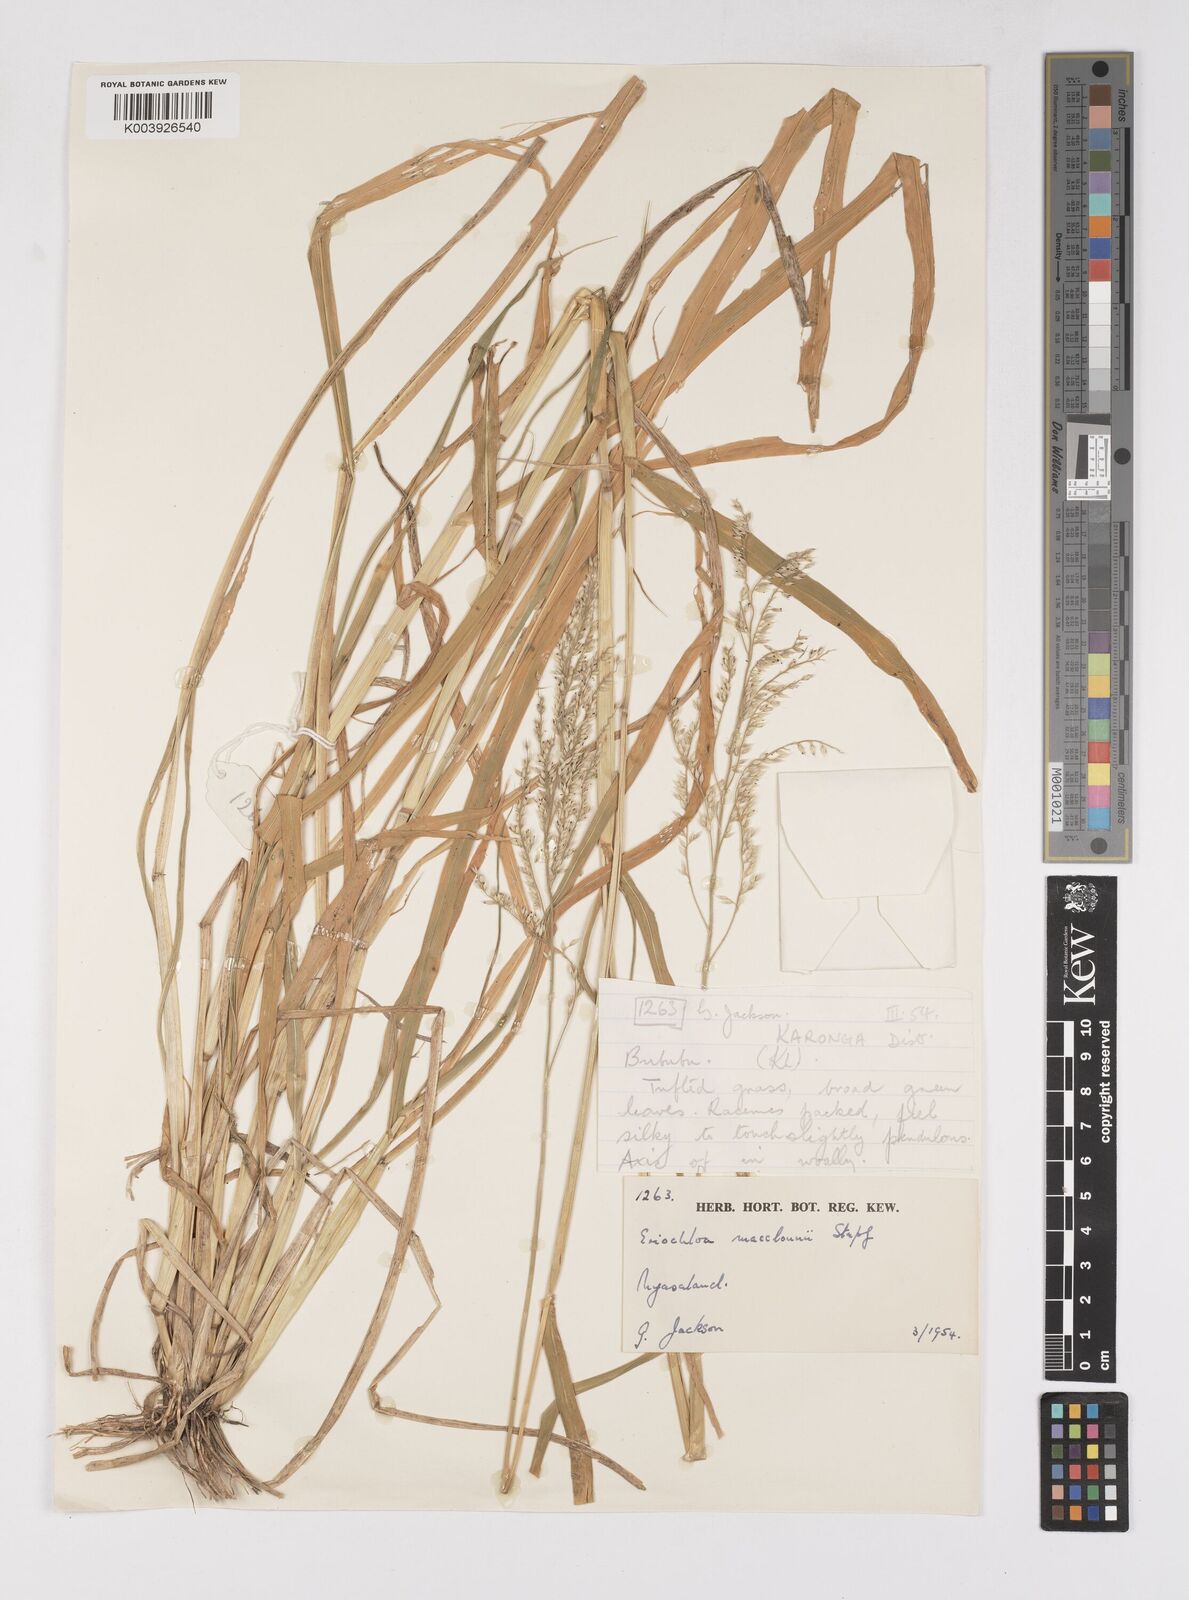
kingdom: Plantae
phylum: Tracheophyta
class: Liliopsida
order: Poales
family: Poaceae
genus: Eriochloa
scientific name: Eriochloa macclounii
